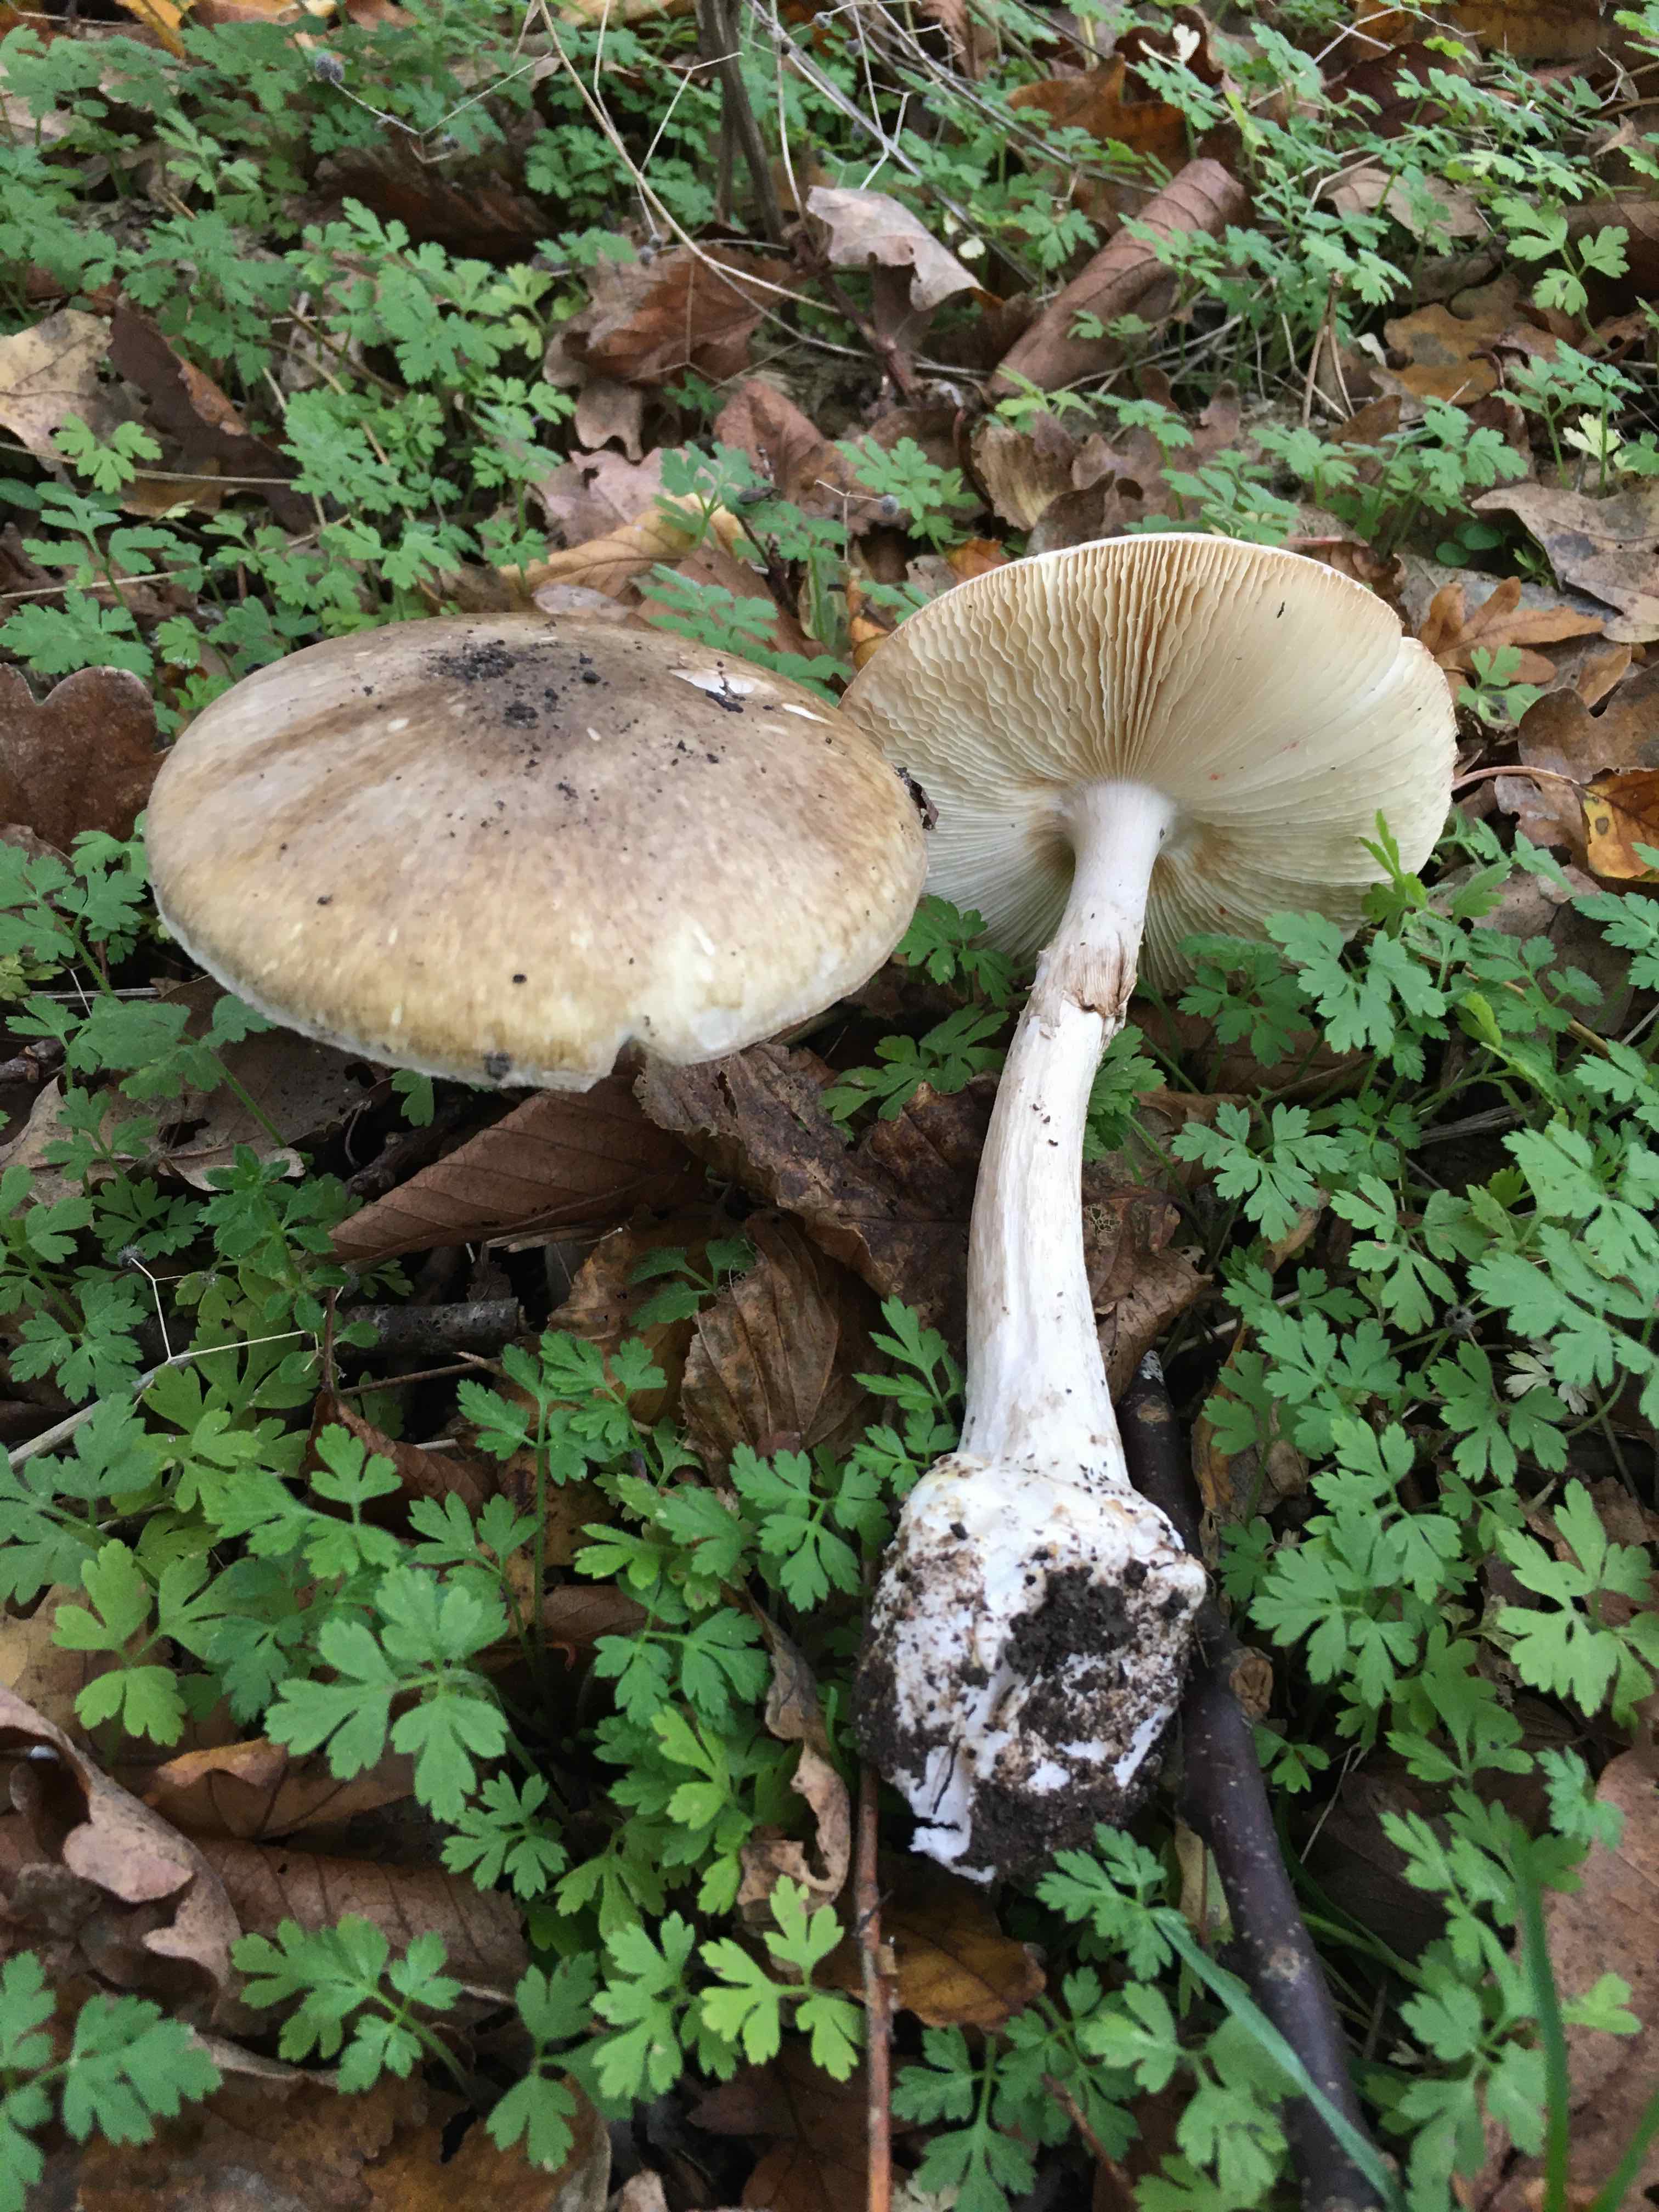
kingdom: Fungi
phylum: Basidiomycota
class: Agaricomycetes
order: Agaricales
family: Amanitaceae
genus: Amanita
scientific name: Amanita phalloides
